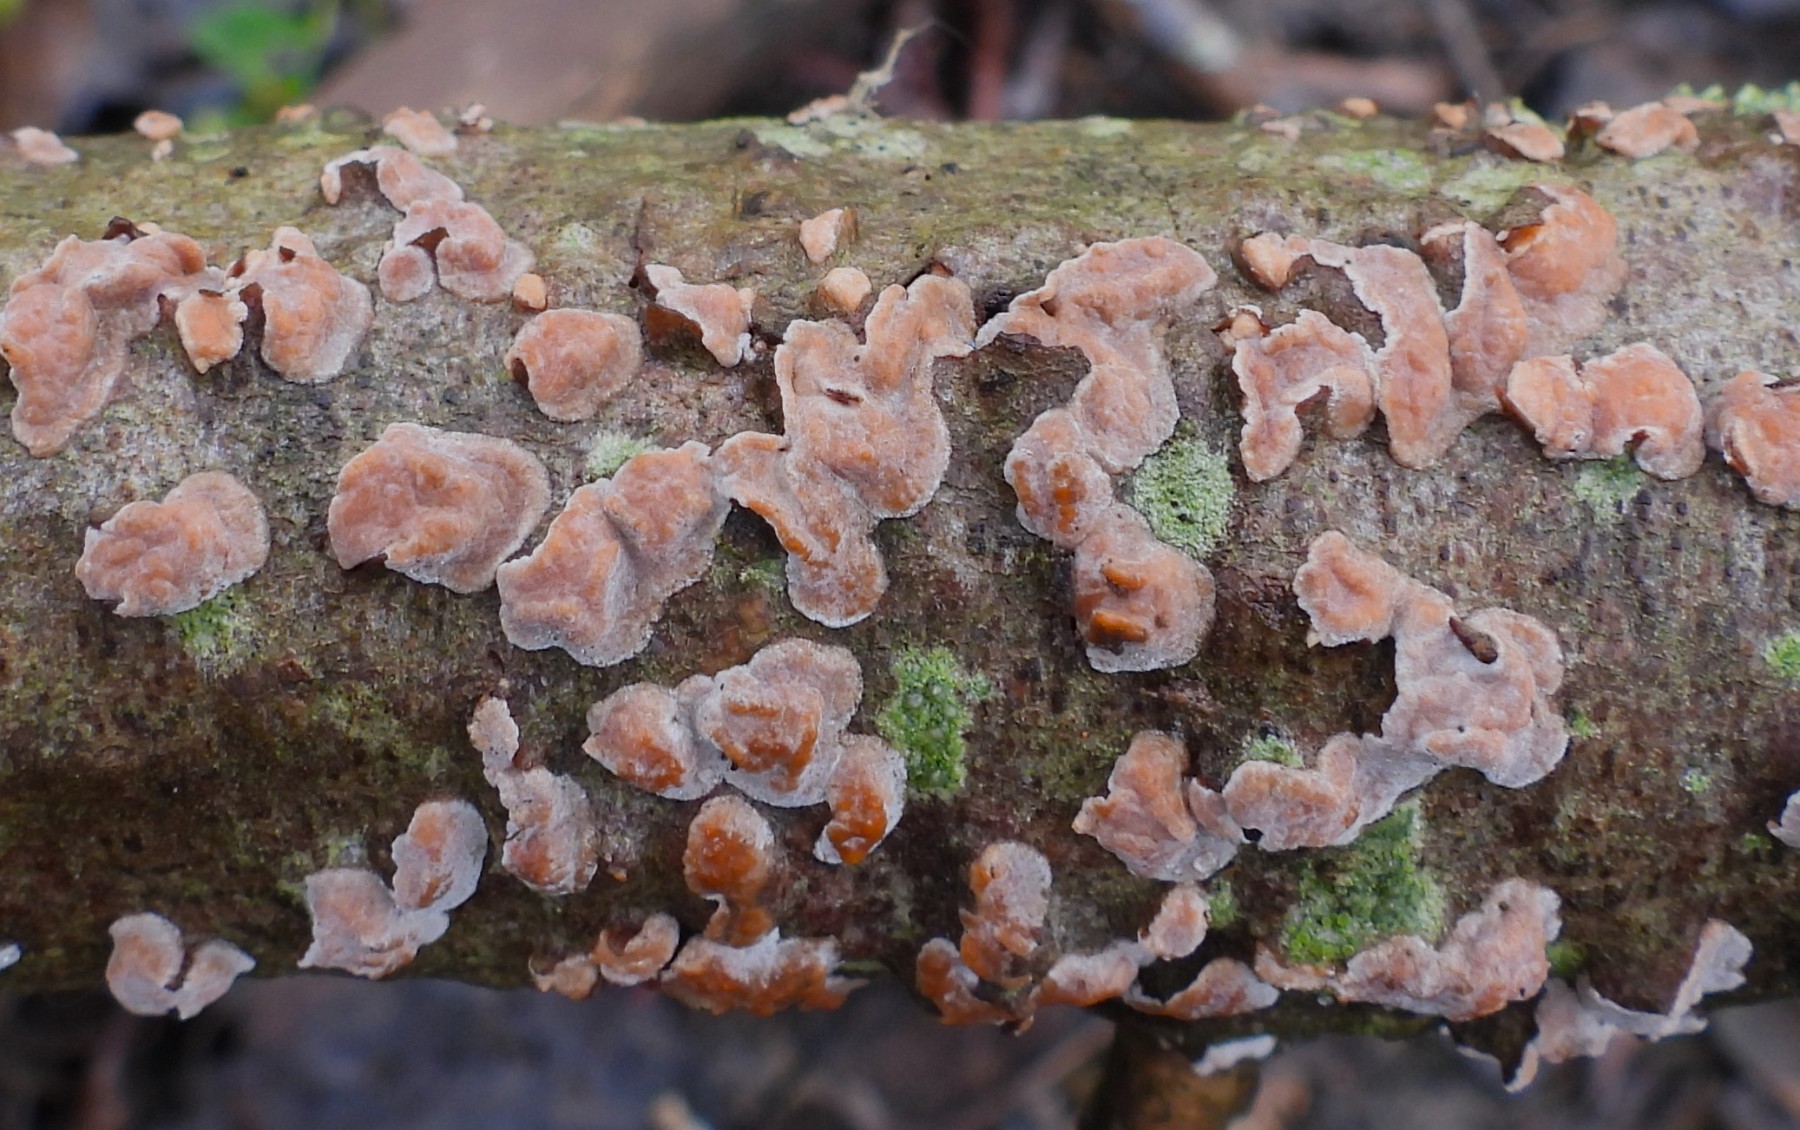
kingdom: Fungi
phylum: Basidiomycota
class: Agaricomycetes
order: Russulales
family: Peniophoraceae
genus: Peniophora
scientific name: Peniophora polygonia
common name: polygon-voksskind
